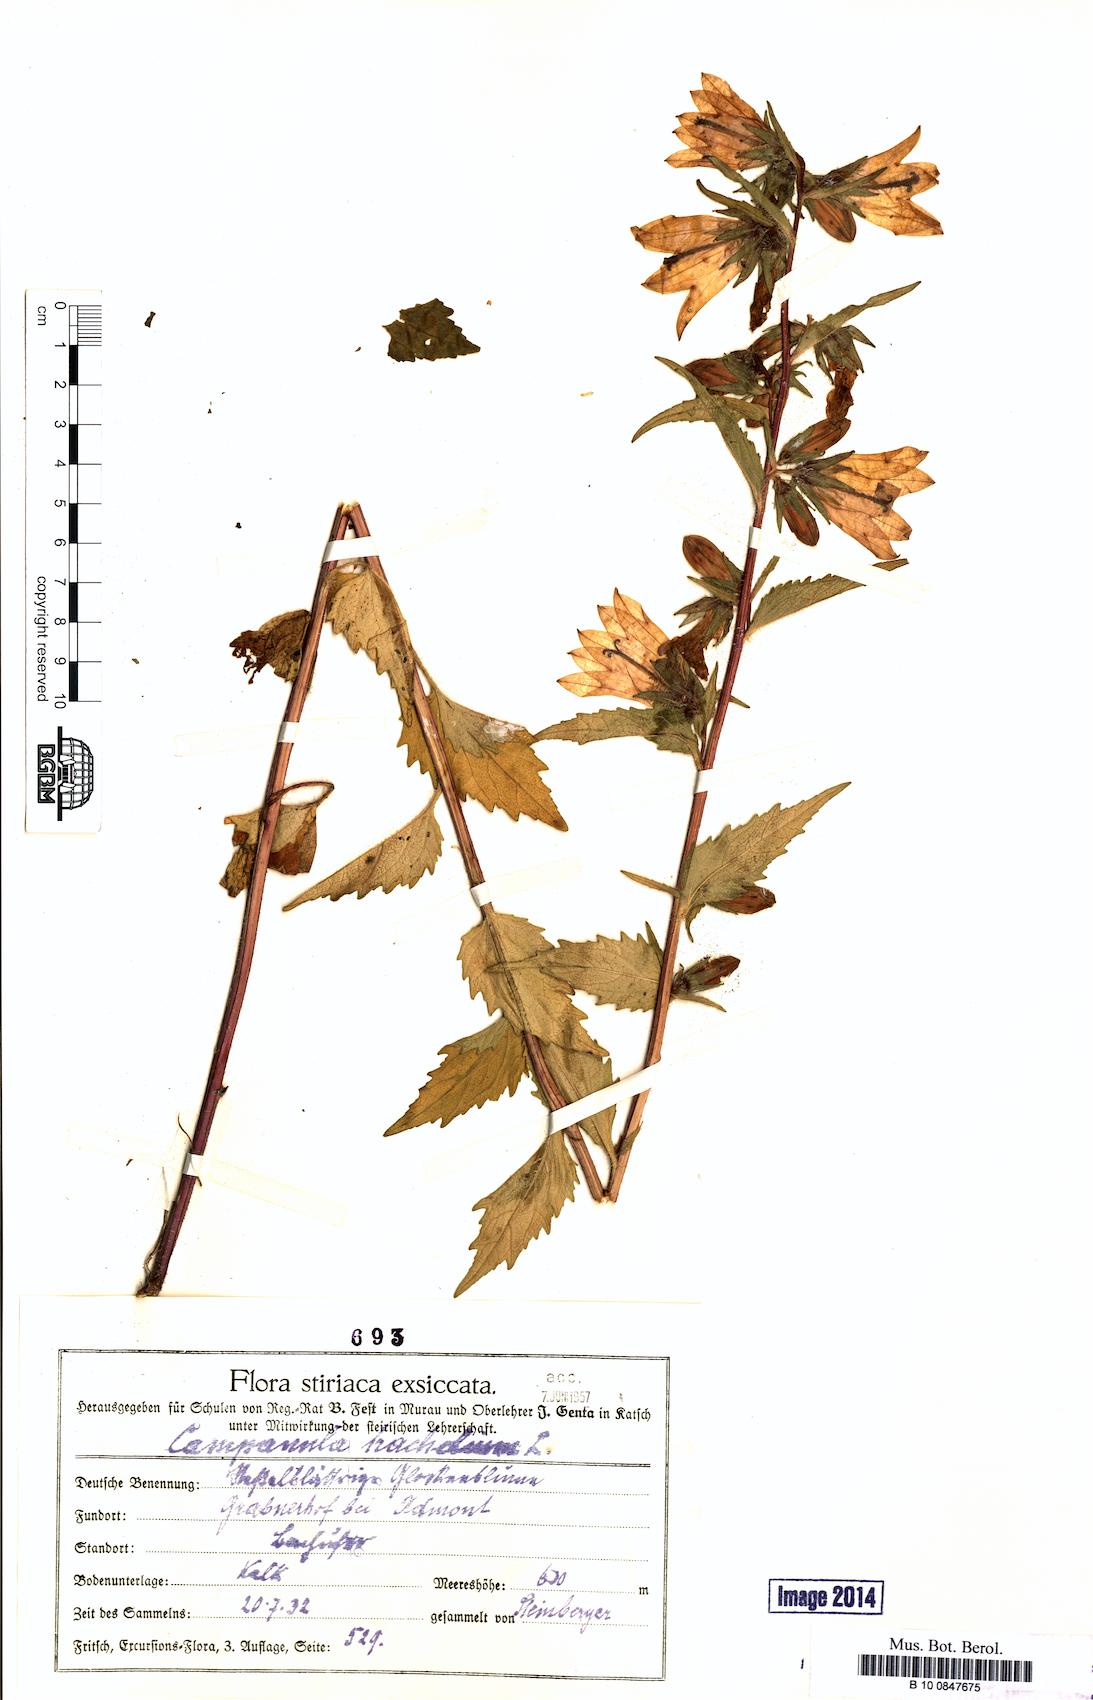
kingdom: Plantae
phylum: Tracheophyta
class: Magnoliopsida
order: Asterales
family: Campanulaceae
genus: Campanula
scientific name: Campanula trachelium
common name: Nettle-leaved bellflower
